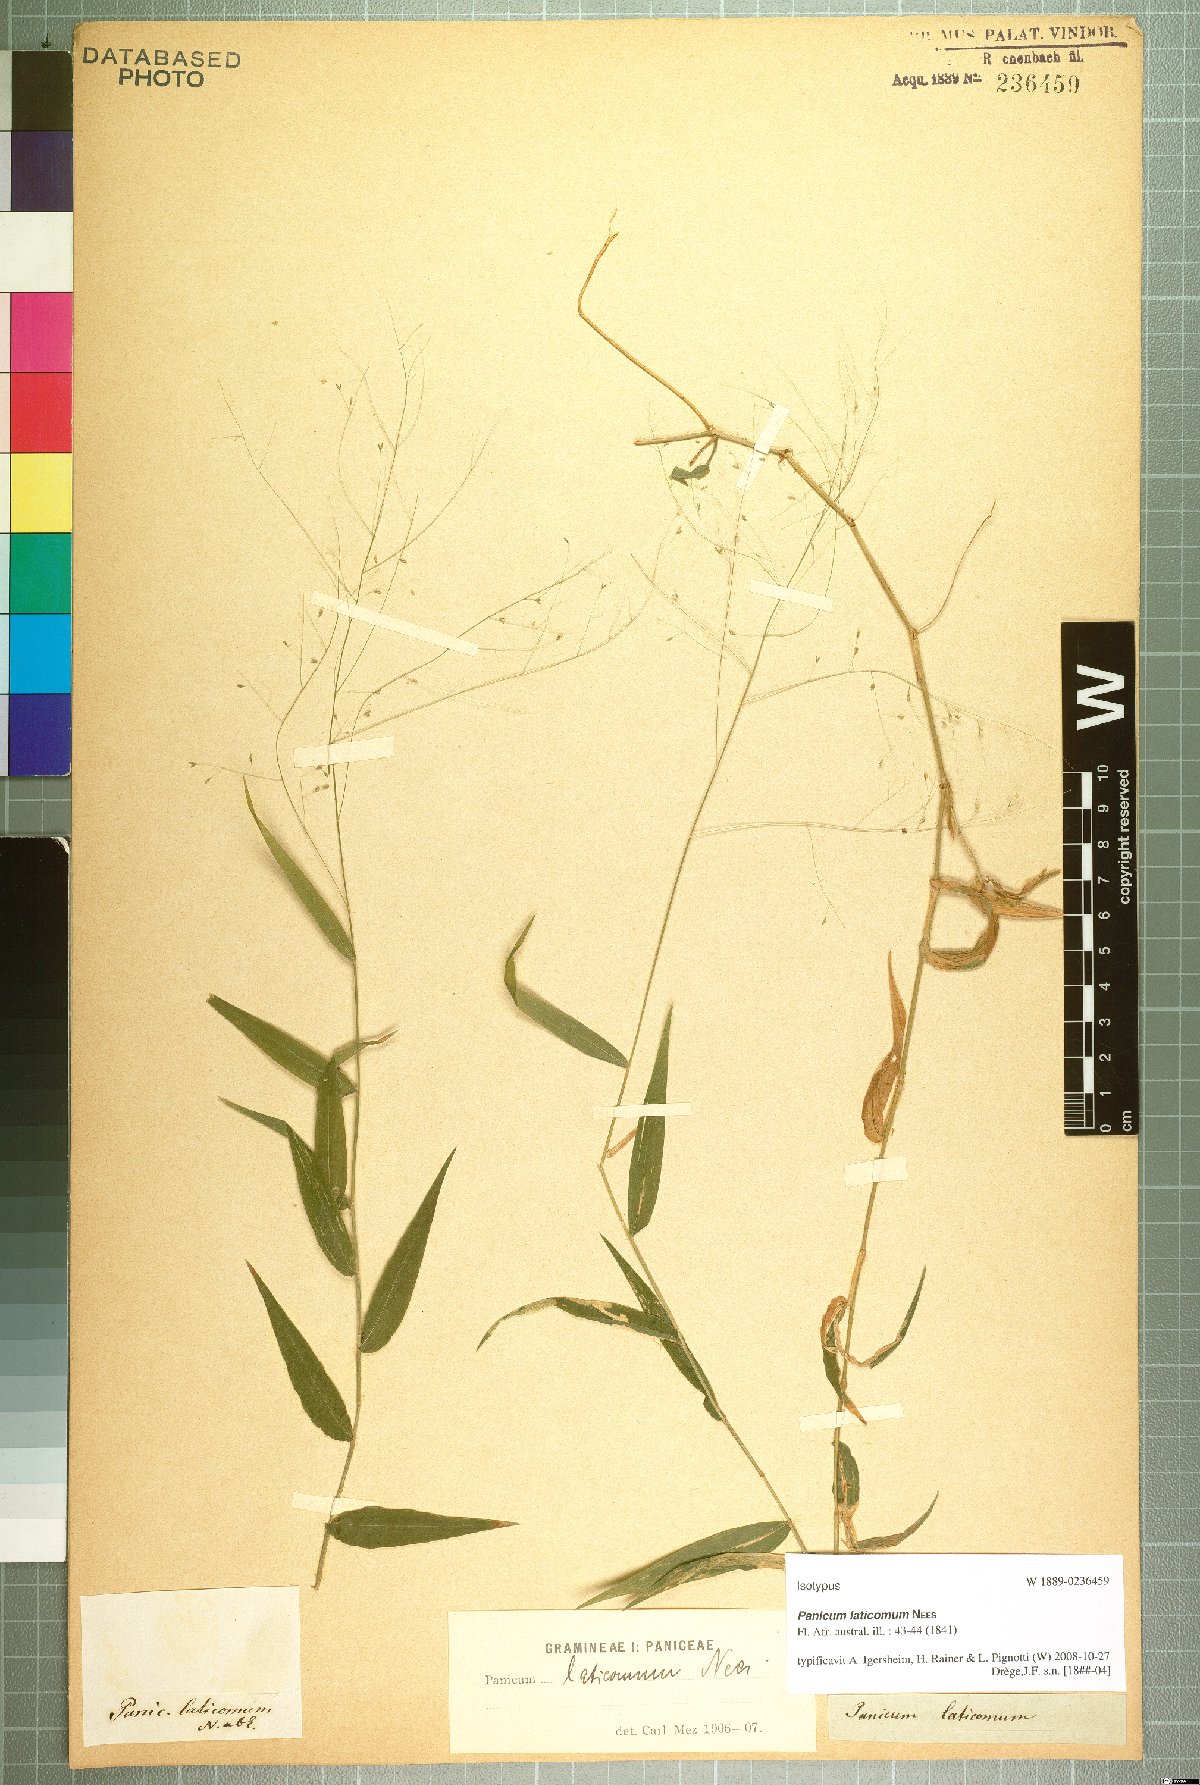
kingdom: Plantae
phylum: Tracheophyta
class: Liliopsida
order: Poales
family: Poaceae
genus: Panicum
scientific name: Panicum laticomum
